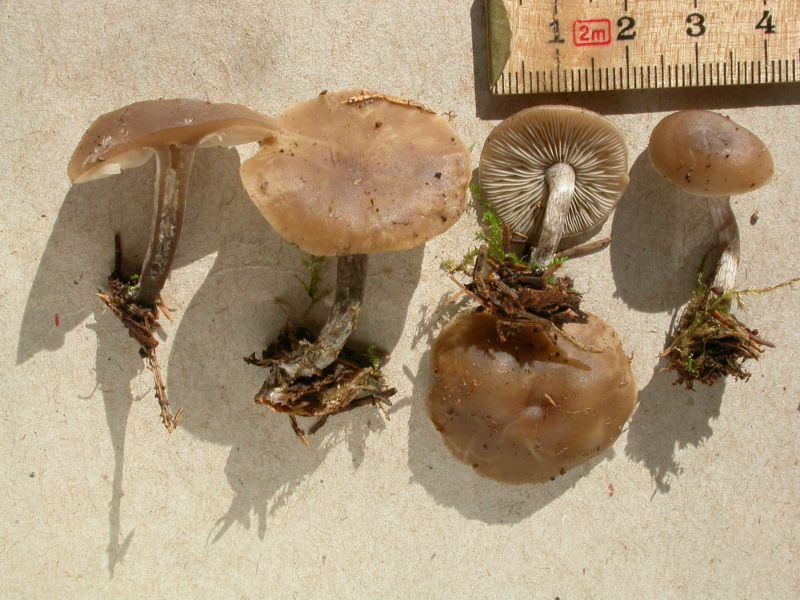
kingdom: Fungi
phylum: Basidiomycota
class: Agaricomycetes
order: Agaricales
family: Lyophyllaceae
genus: Tephrocybe
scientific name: Tephrocybe baeosperma
